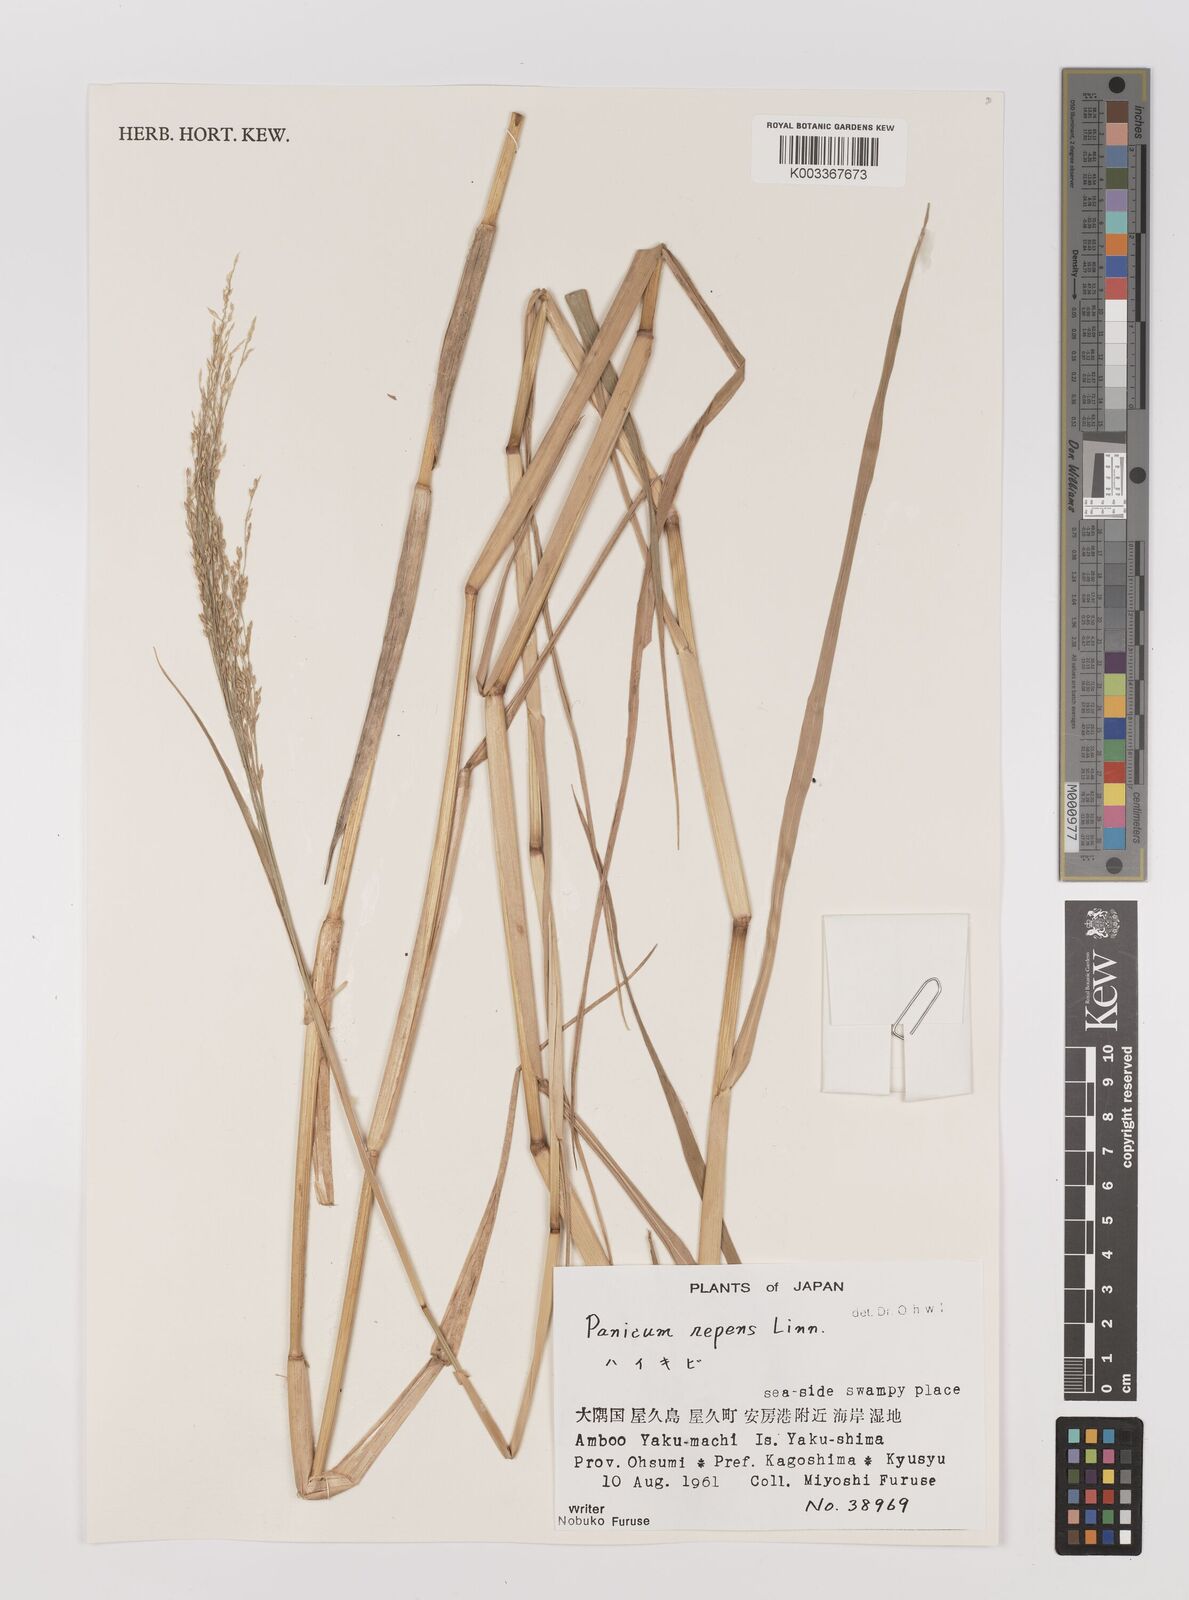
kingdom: Plantae
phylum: Tracheophyta
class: Liliopsida
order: Poales
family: Poaceae
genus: Panicum
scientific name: Panicum repens
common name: Torpedo grass
